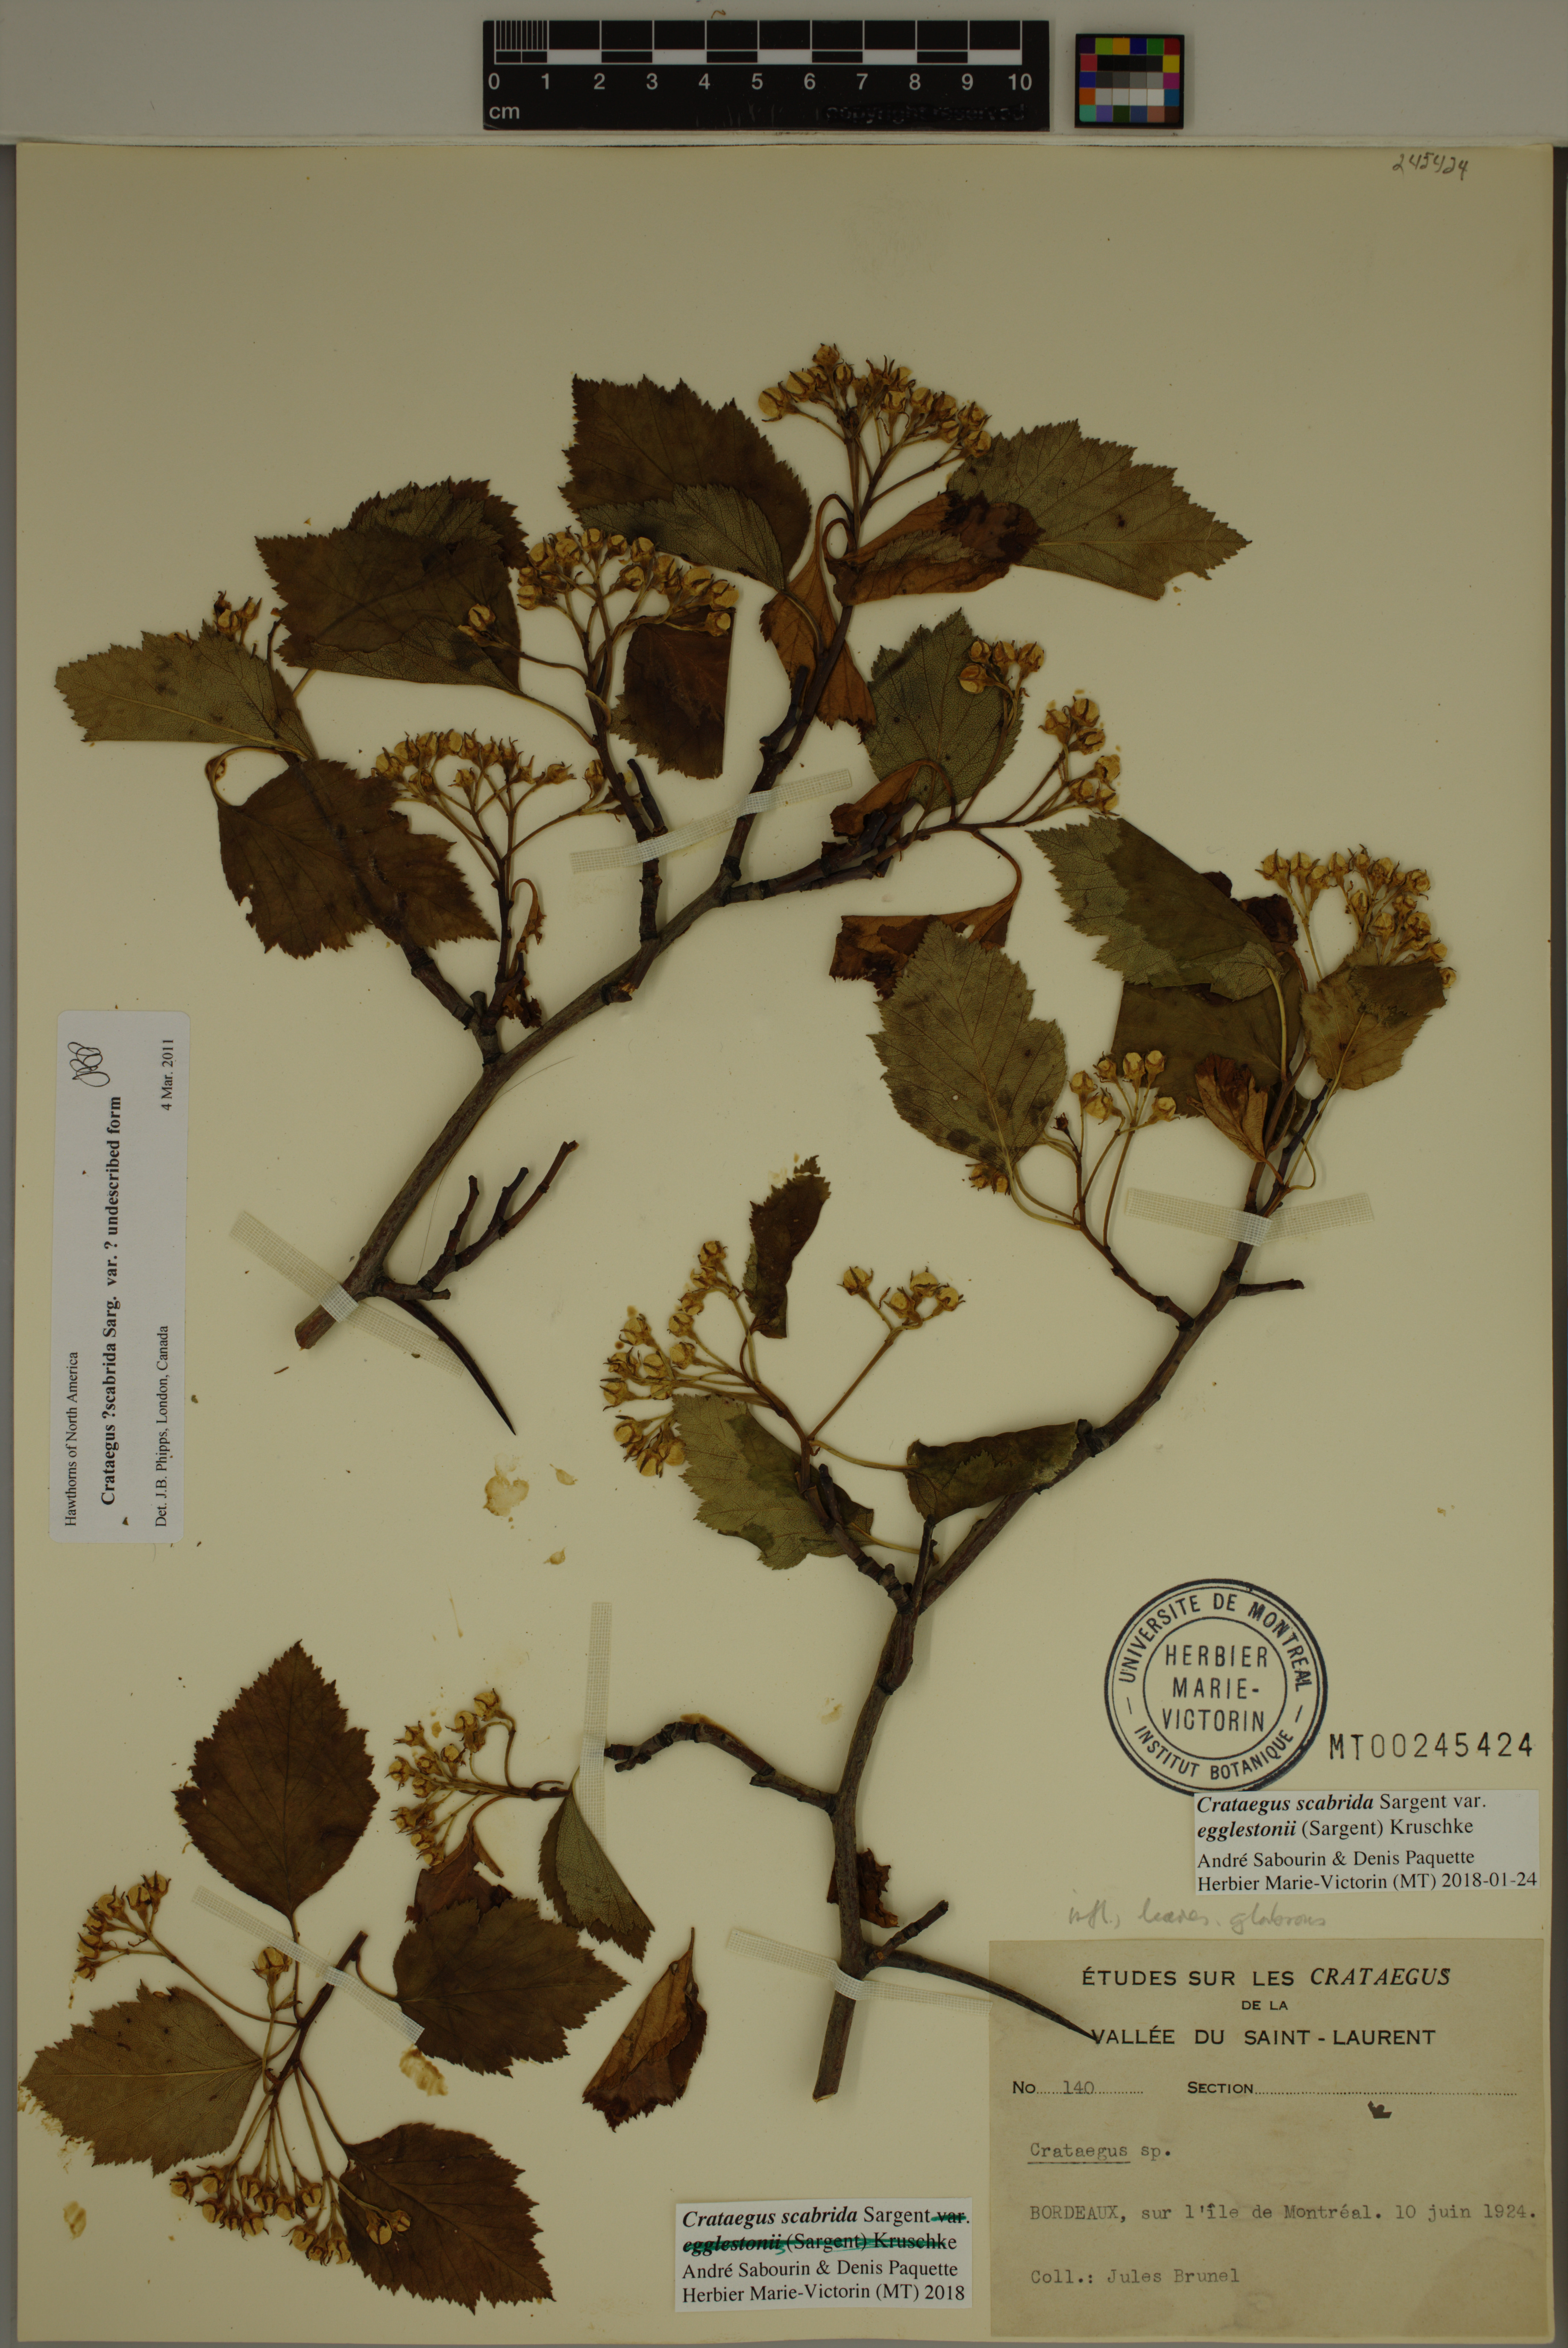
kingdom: Plantae
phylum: Tracheophyta
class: Magnoliopsida
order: Rosales
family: Rosaceae
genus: Crataegus
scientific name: Crataegus scabrida
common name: Rough hawthorn
